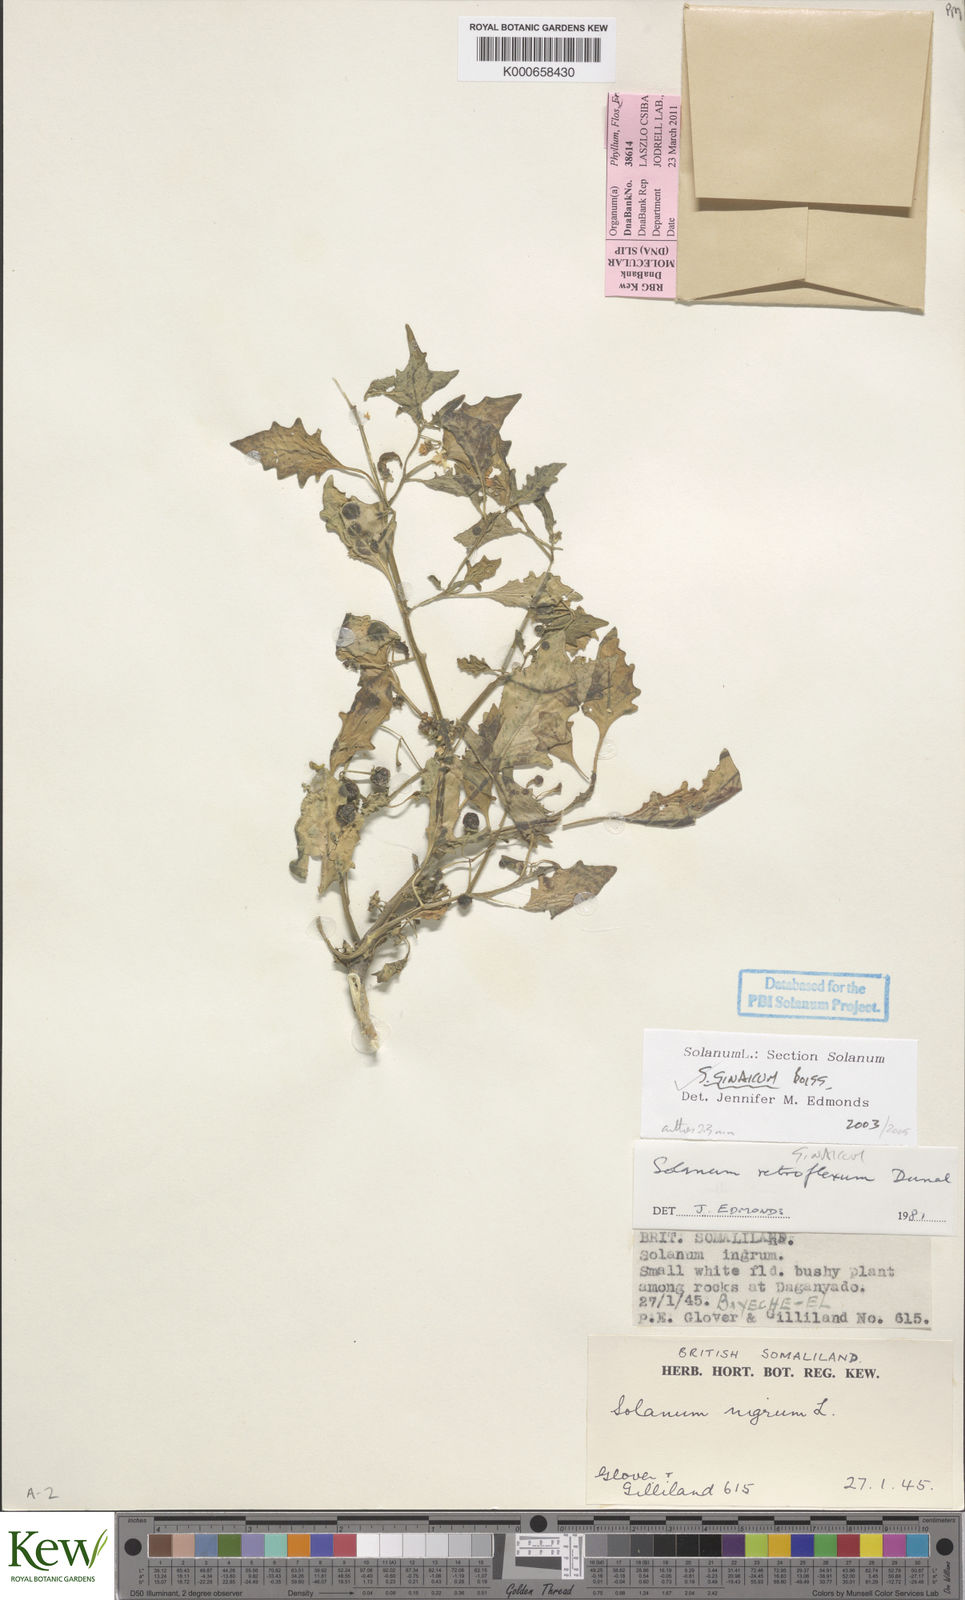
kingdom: Plantae
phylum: Tracheophyta
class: Magnoliopsida
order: Solanales
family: Solanaceae
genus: Solanum
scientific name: Solanum villosum
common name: Red nightshade
